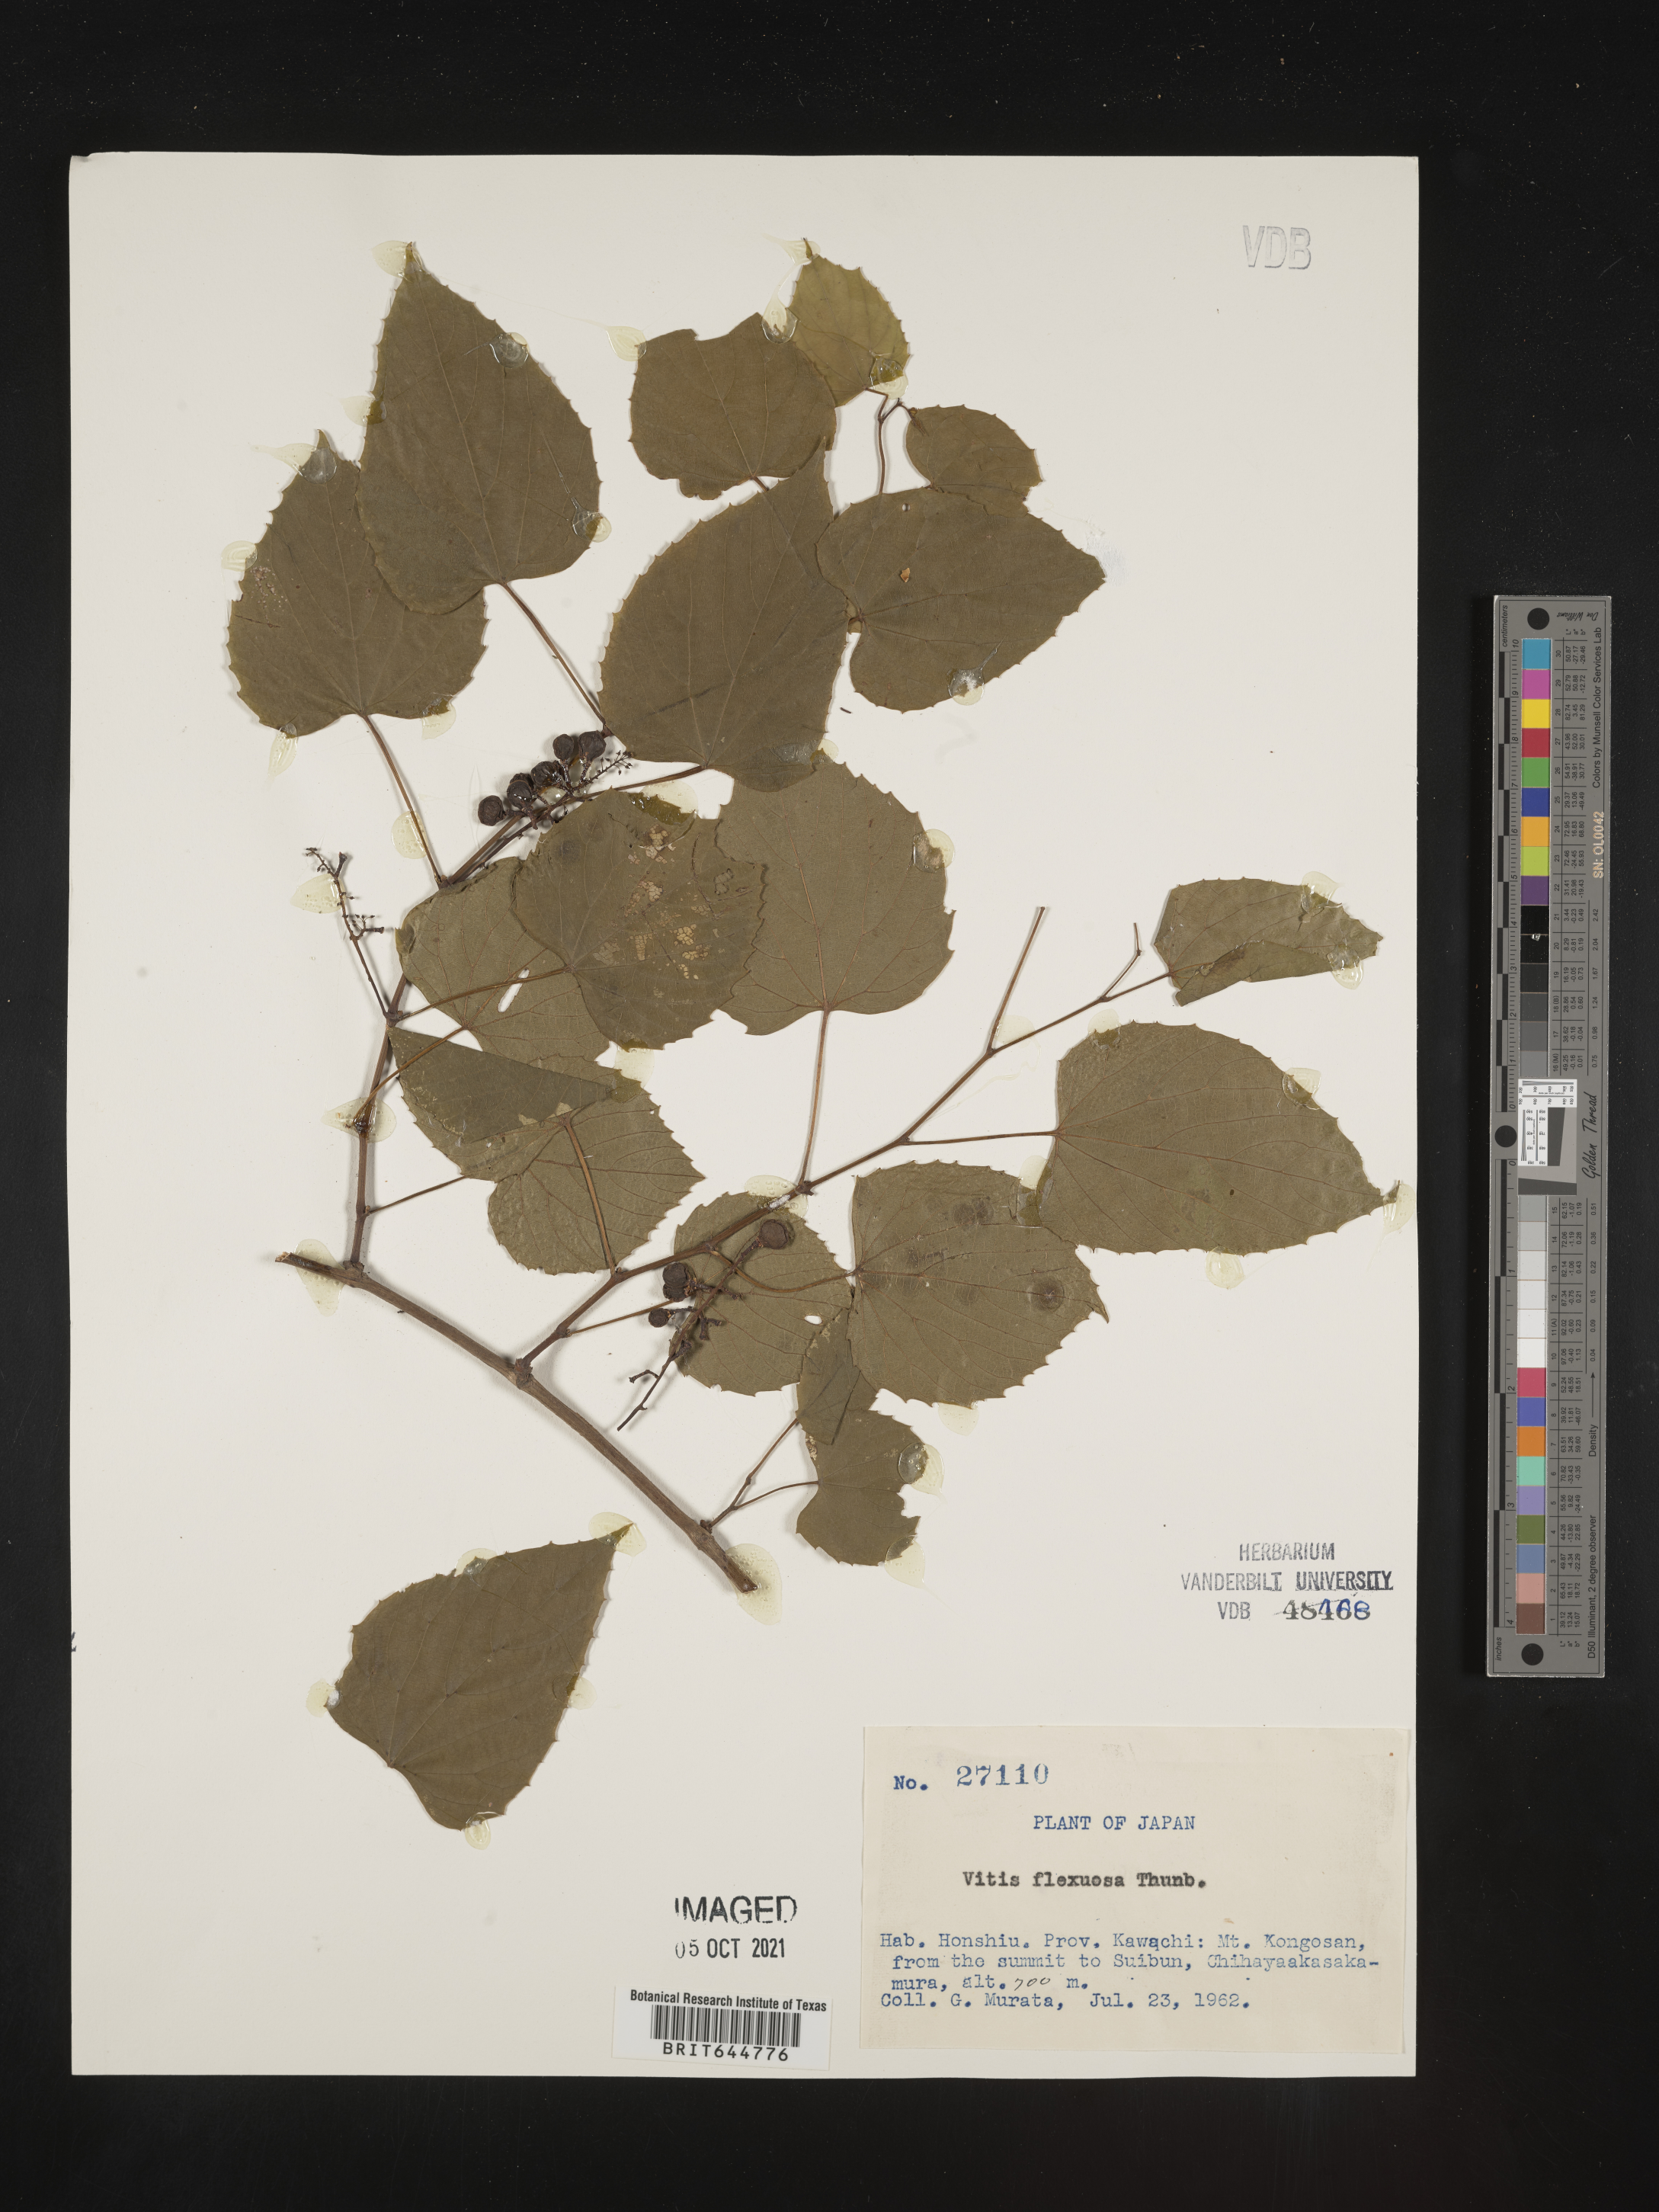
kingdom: Plantae
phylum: Tracheophyta
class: Magnoliopsida
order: Vitales
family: Vitaceae
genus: Cissus
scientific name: Cissus
